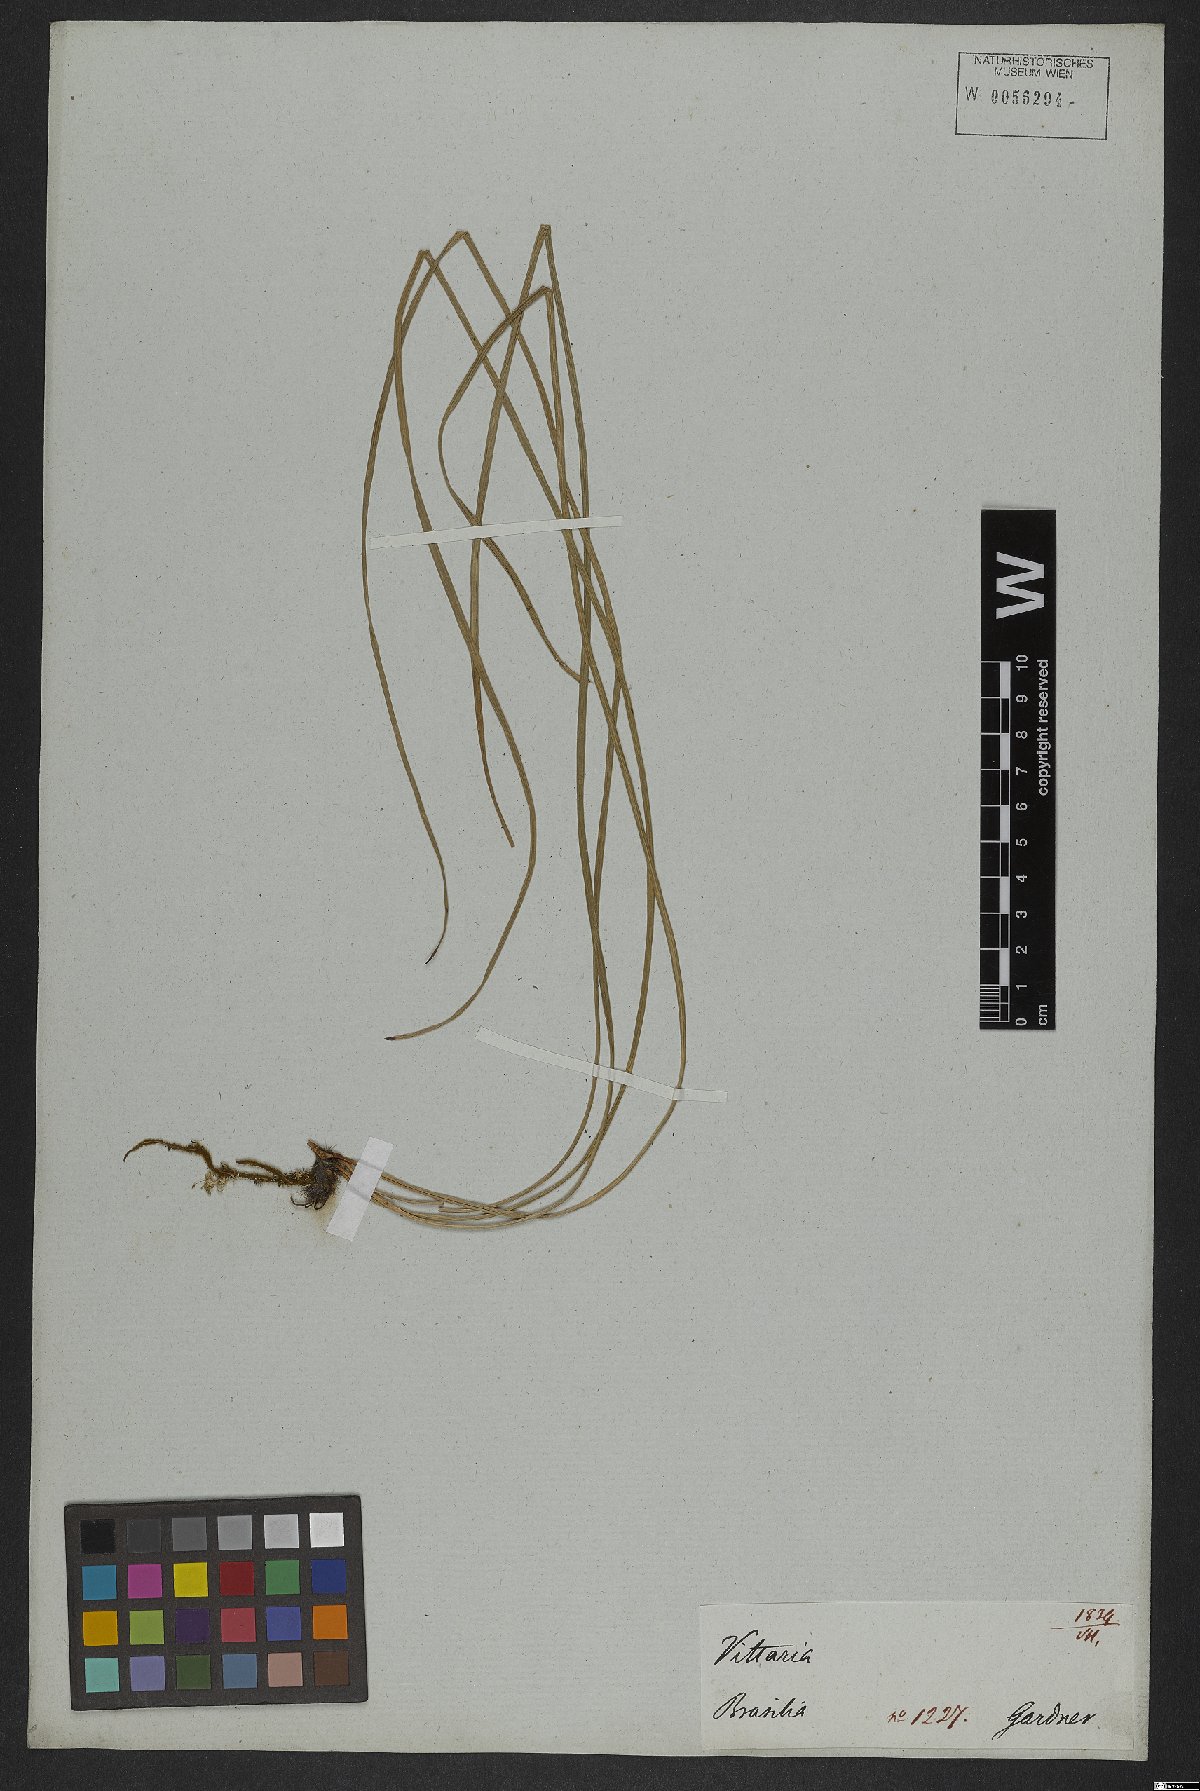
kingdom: Plantae
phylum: Tracheophyta
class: Polypodiopsida
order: Polypodiales
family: Pteridaceae
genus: Vittaria
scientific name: Vittaria lineata
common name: Shoestring fern
